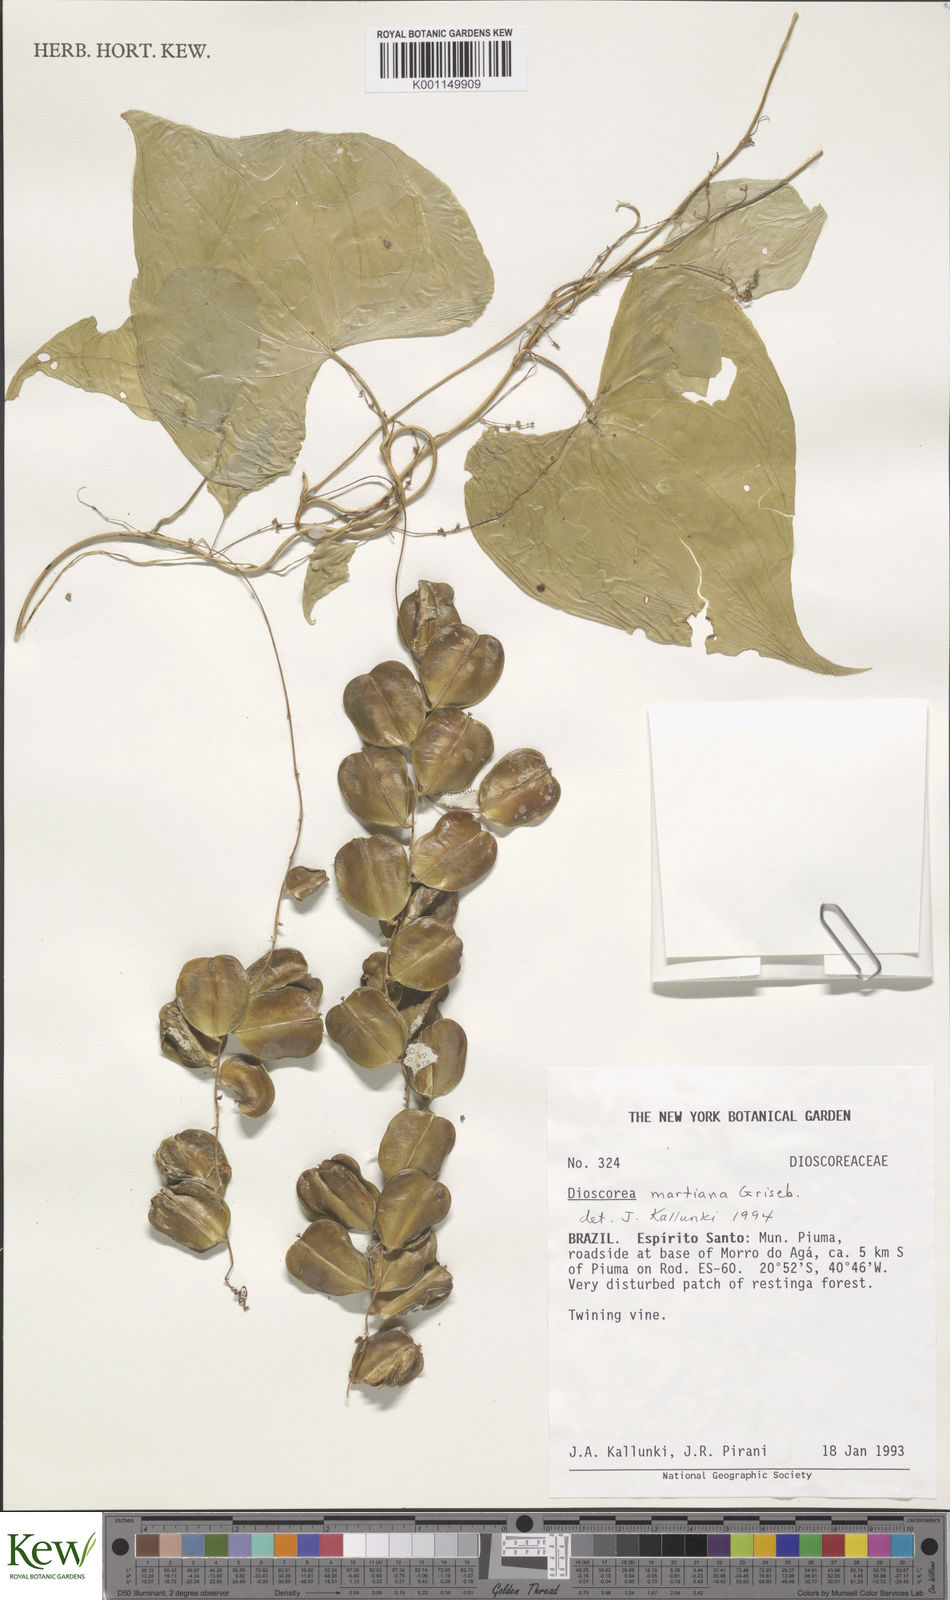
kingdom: Plantae
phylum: Tracheophyta
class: Liliopsida
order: Dioscoreales
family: Dioscoreaceae
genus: Dioscorea
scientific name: Dioscorea martiana
